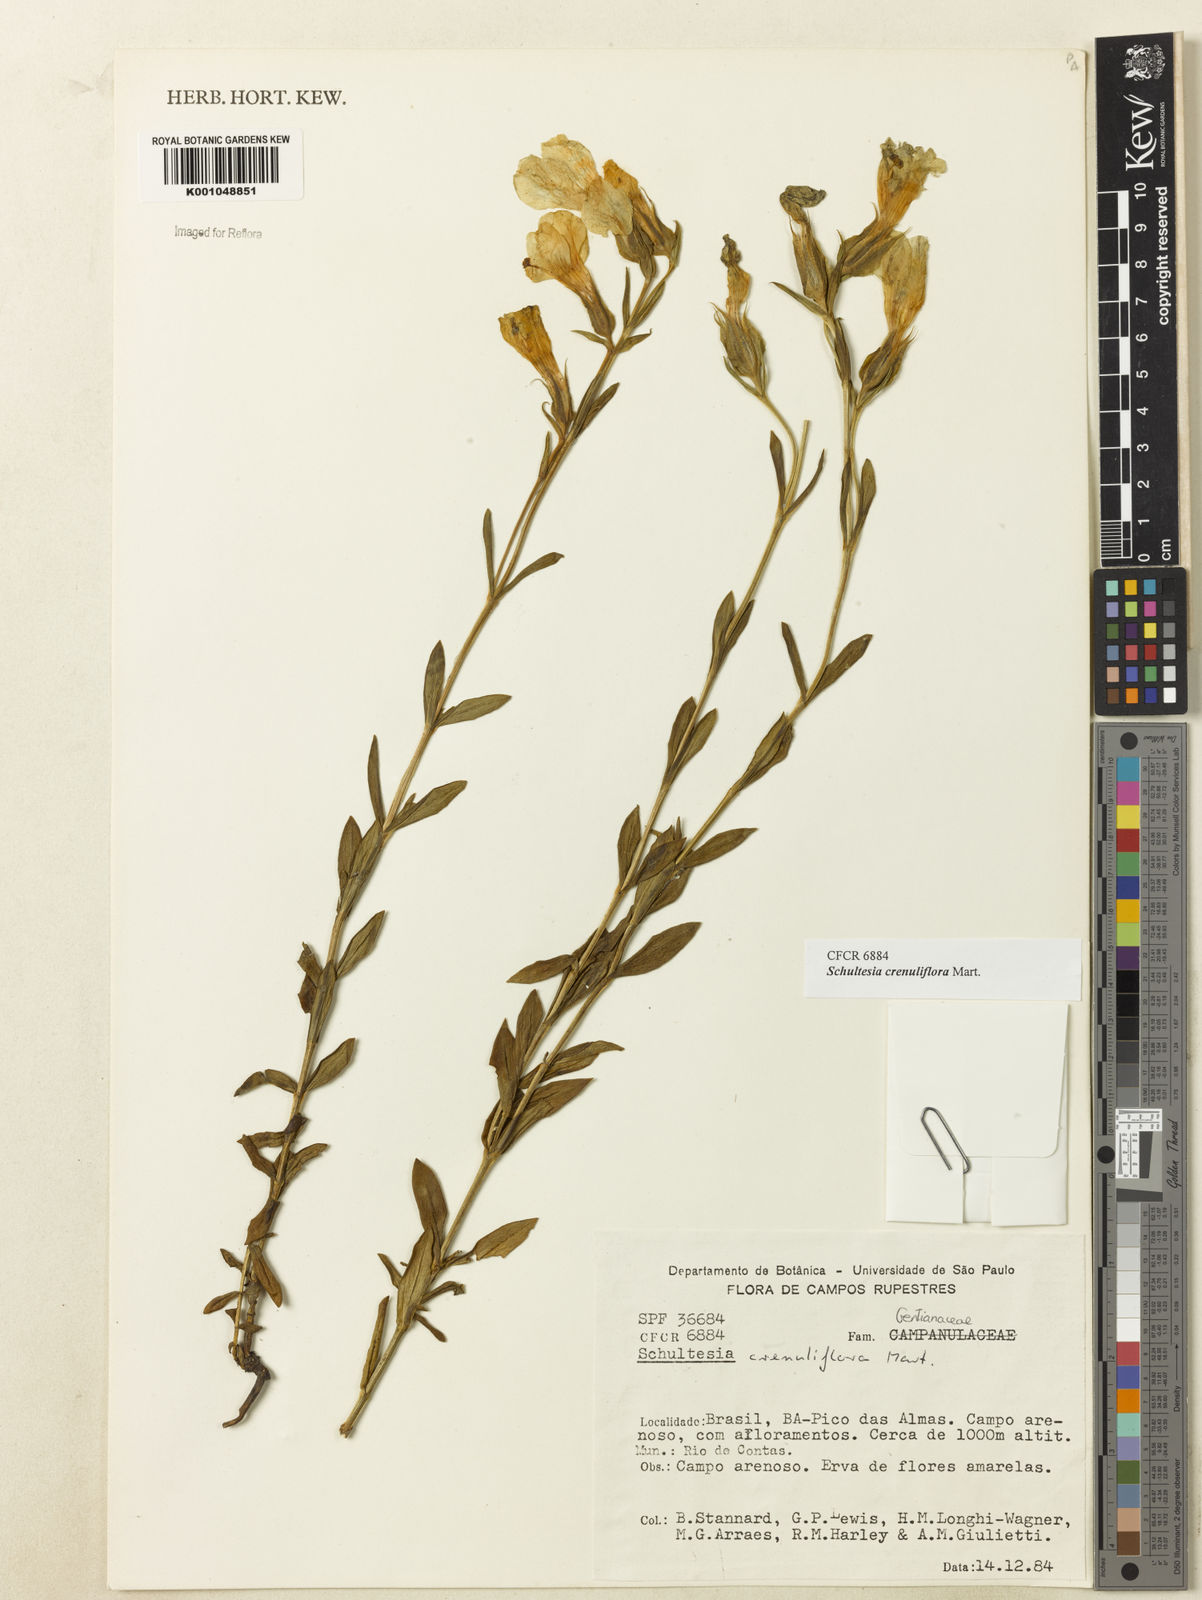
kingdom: Plantae
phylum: Tracheophyta
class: Magnoliopsida
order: Gentianales
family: Gentianaceae
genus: Schultesia
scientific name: Schultesia crenuliflora
